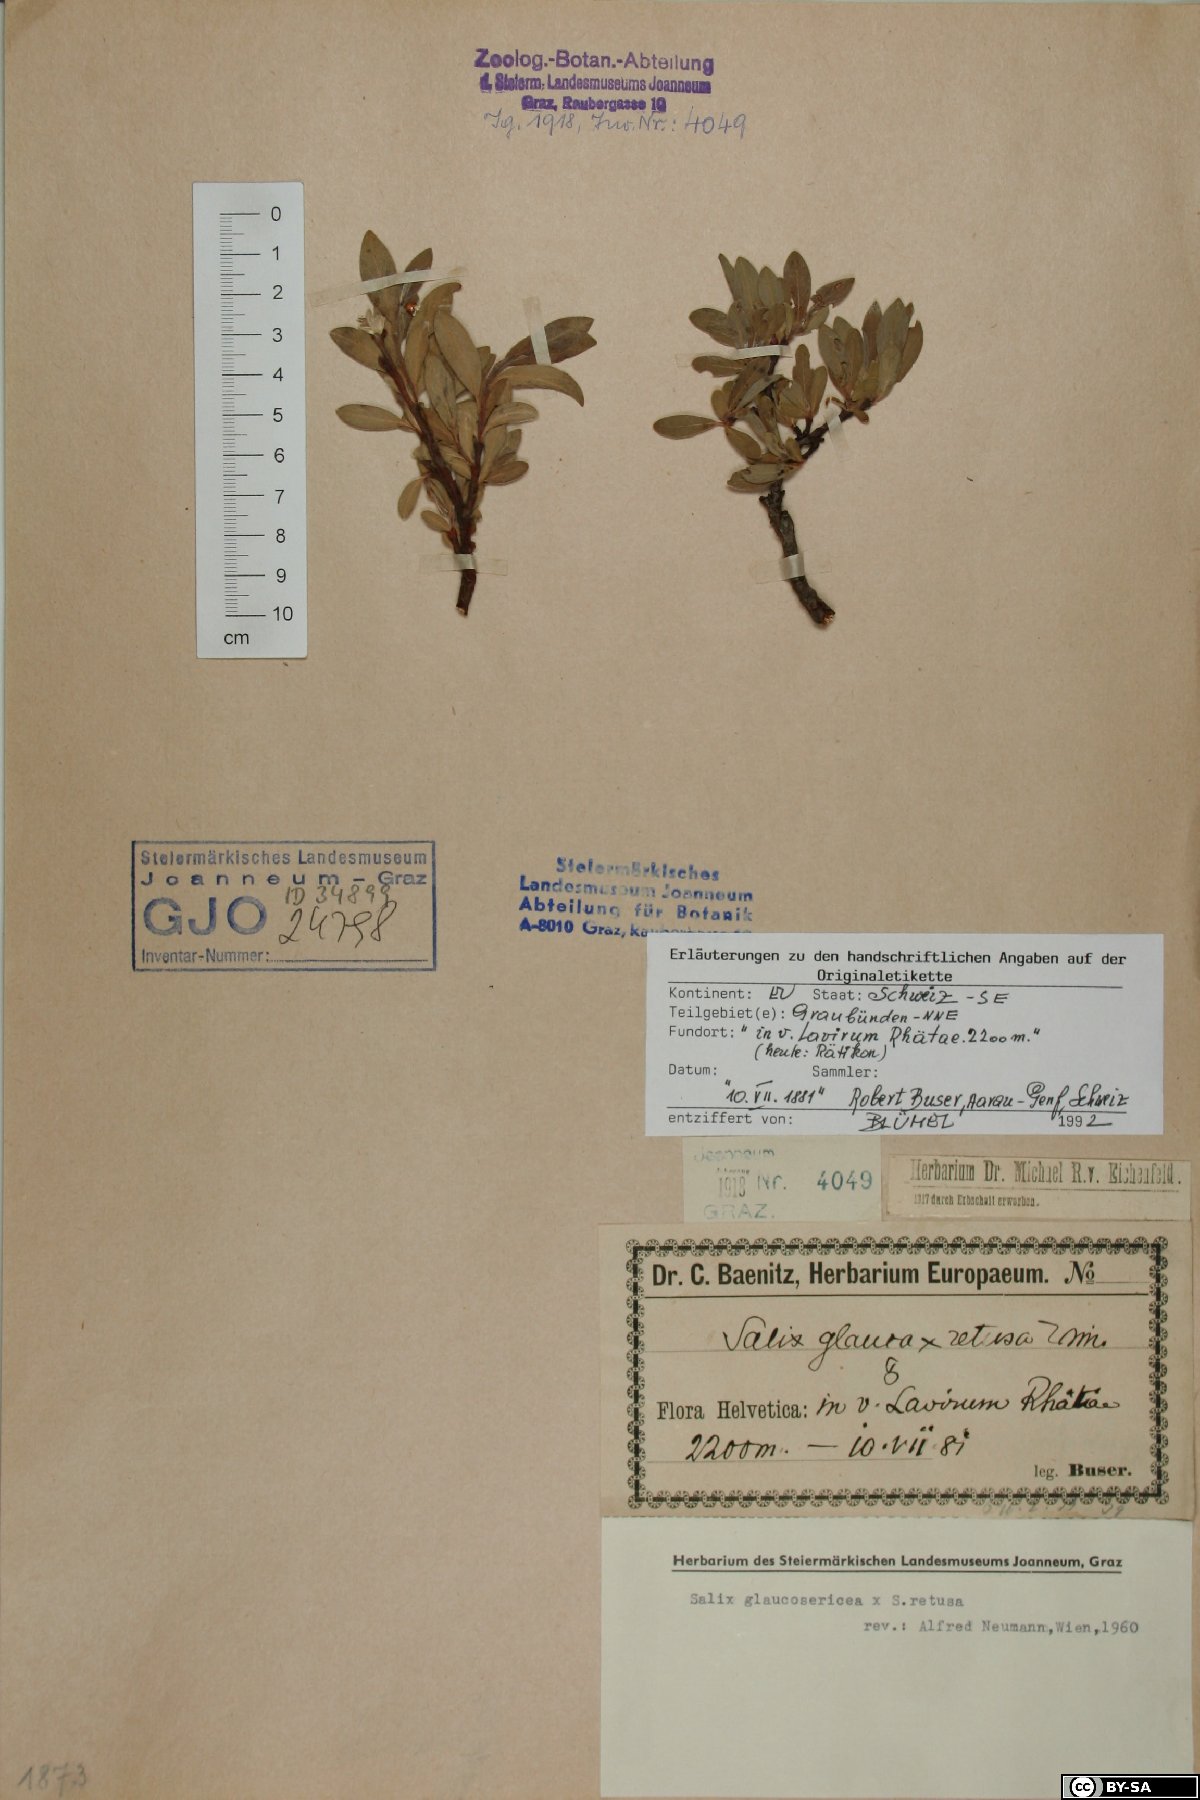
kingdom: Plantae
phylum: Tracheophyta
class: Magnoliopsida
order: Malpighiales
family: Salicaceae
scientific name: Salicaceae
